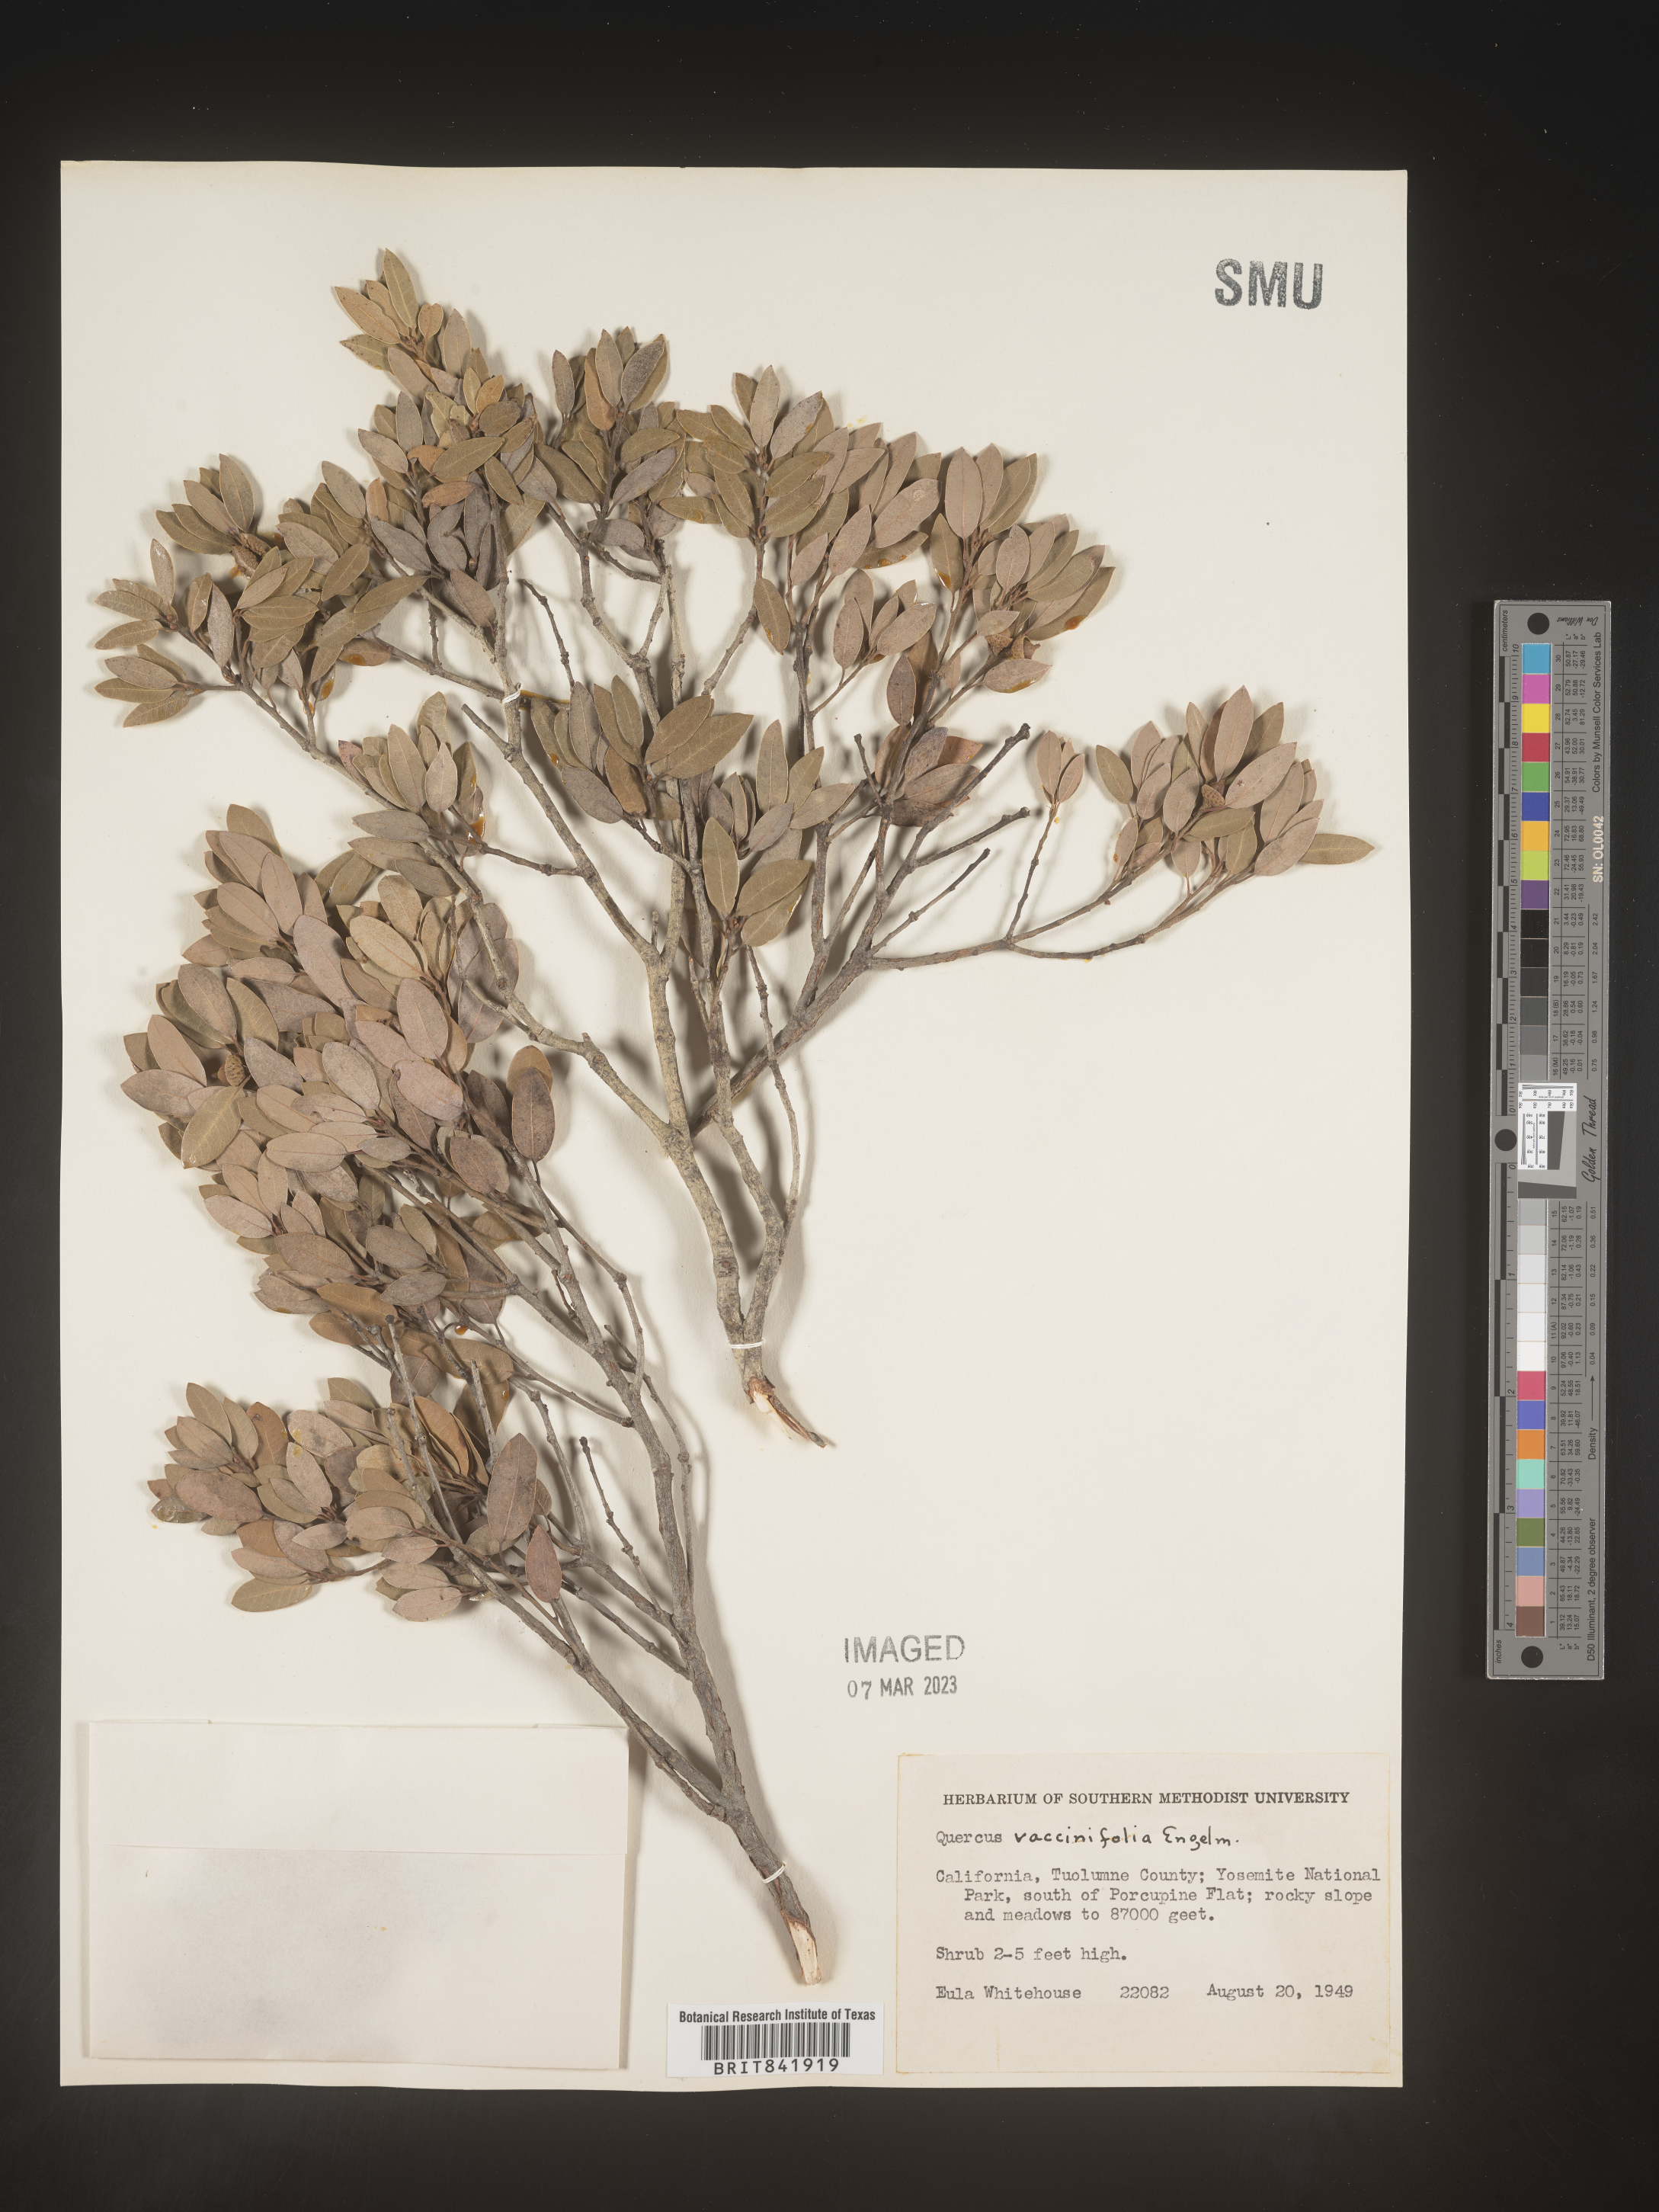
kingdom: Plantae
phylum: Tracheophyta
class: Magnoliopsida
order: Fagales
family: Fagaceae
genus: Quercus
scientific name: Quercus
